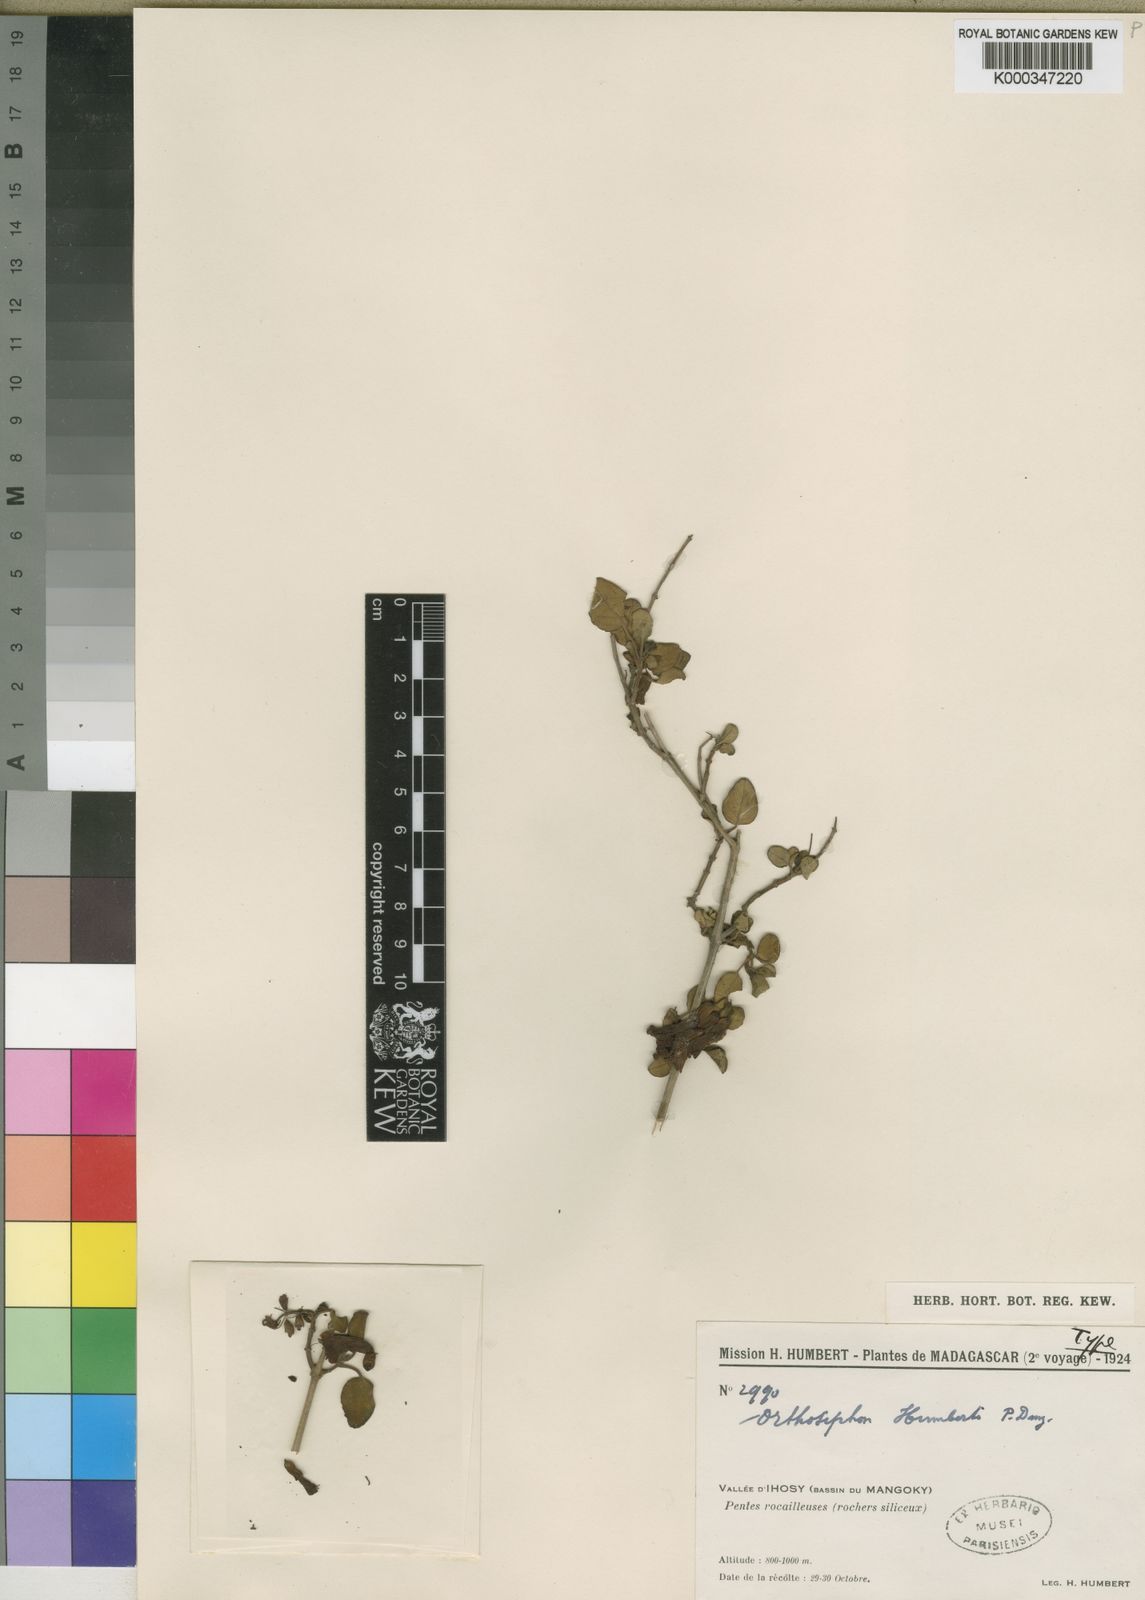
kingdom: Plantae
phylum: Tracheophyta
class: Magnoliopsida
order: Lamiales
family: Lamiaceae
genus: Orthosiphon
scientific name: Orthosiphon humbertii
